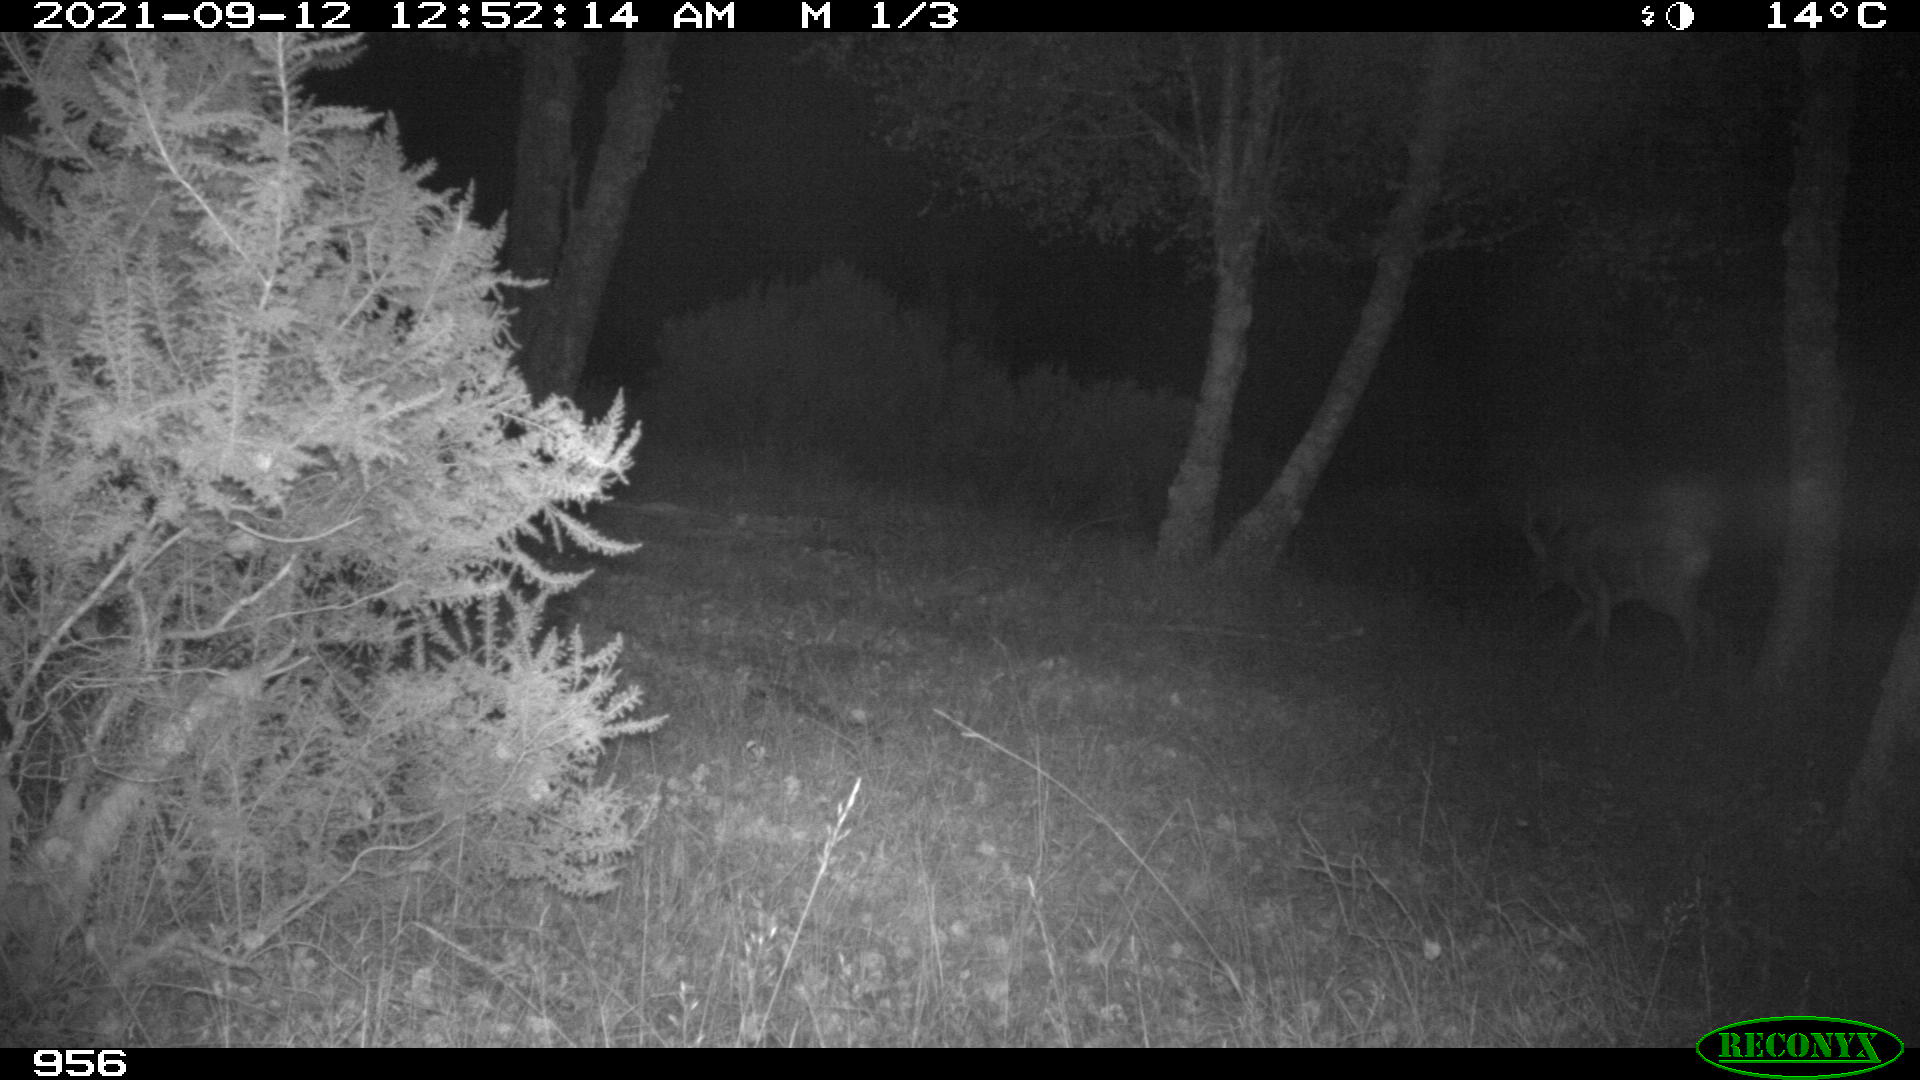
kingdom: Animalia
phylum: Chordata
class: Mammalia
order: Artiodactyla
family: Cervidae
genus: Capreolus
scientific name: Capreolus capreolus
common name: Western roe deer
